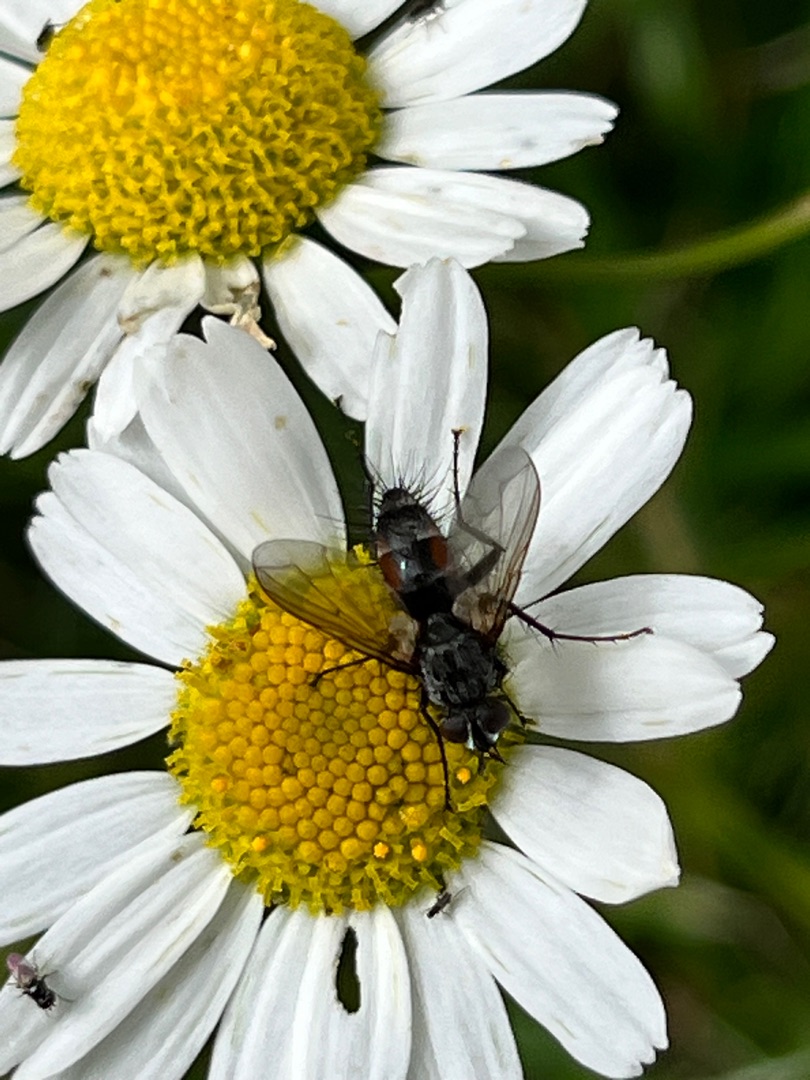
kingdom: Animalia
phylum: Arthropoda
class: Insecta
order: Diptera
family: Tachinidae
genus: Eriothrix
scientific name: Eriothrix rufomaculatus
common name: Rød snylteflue
